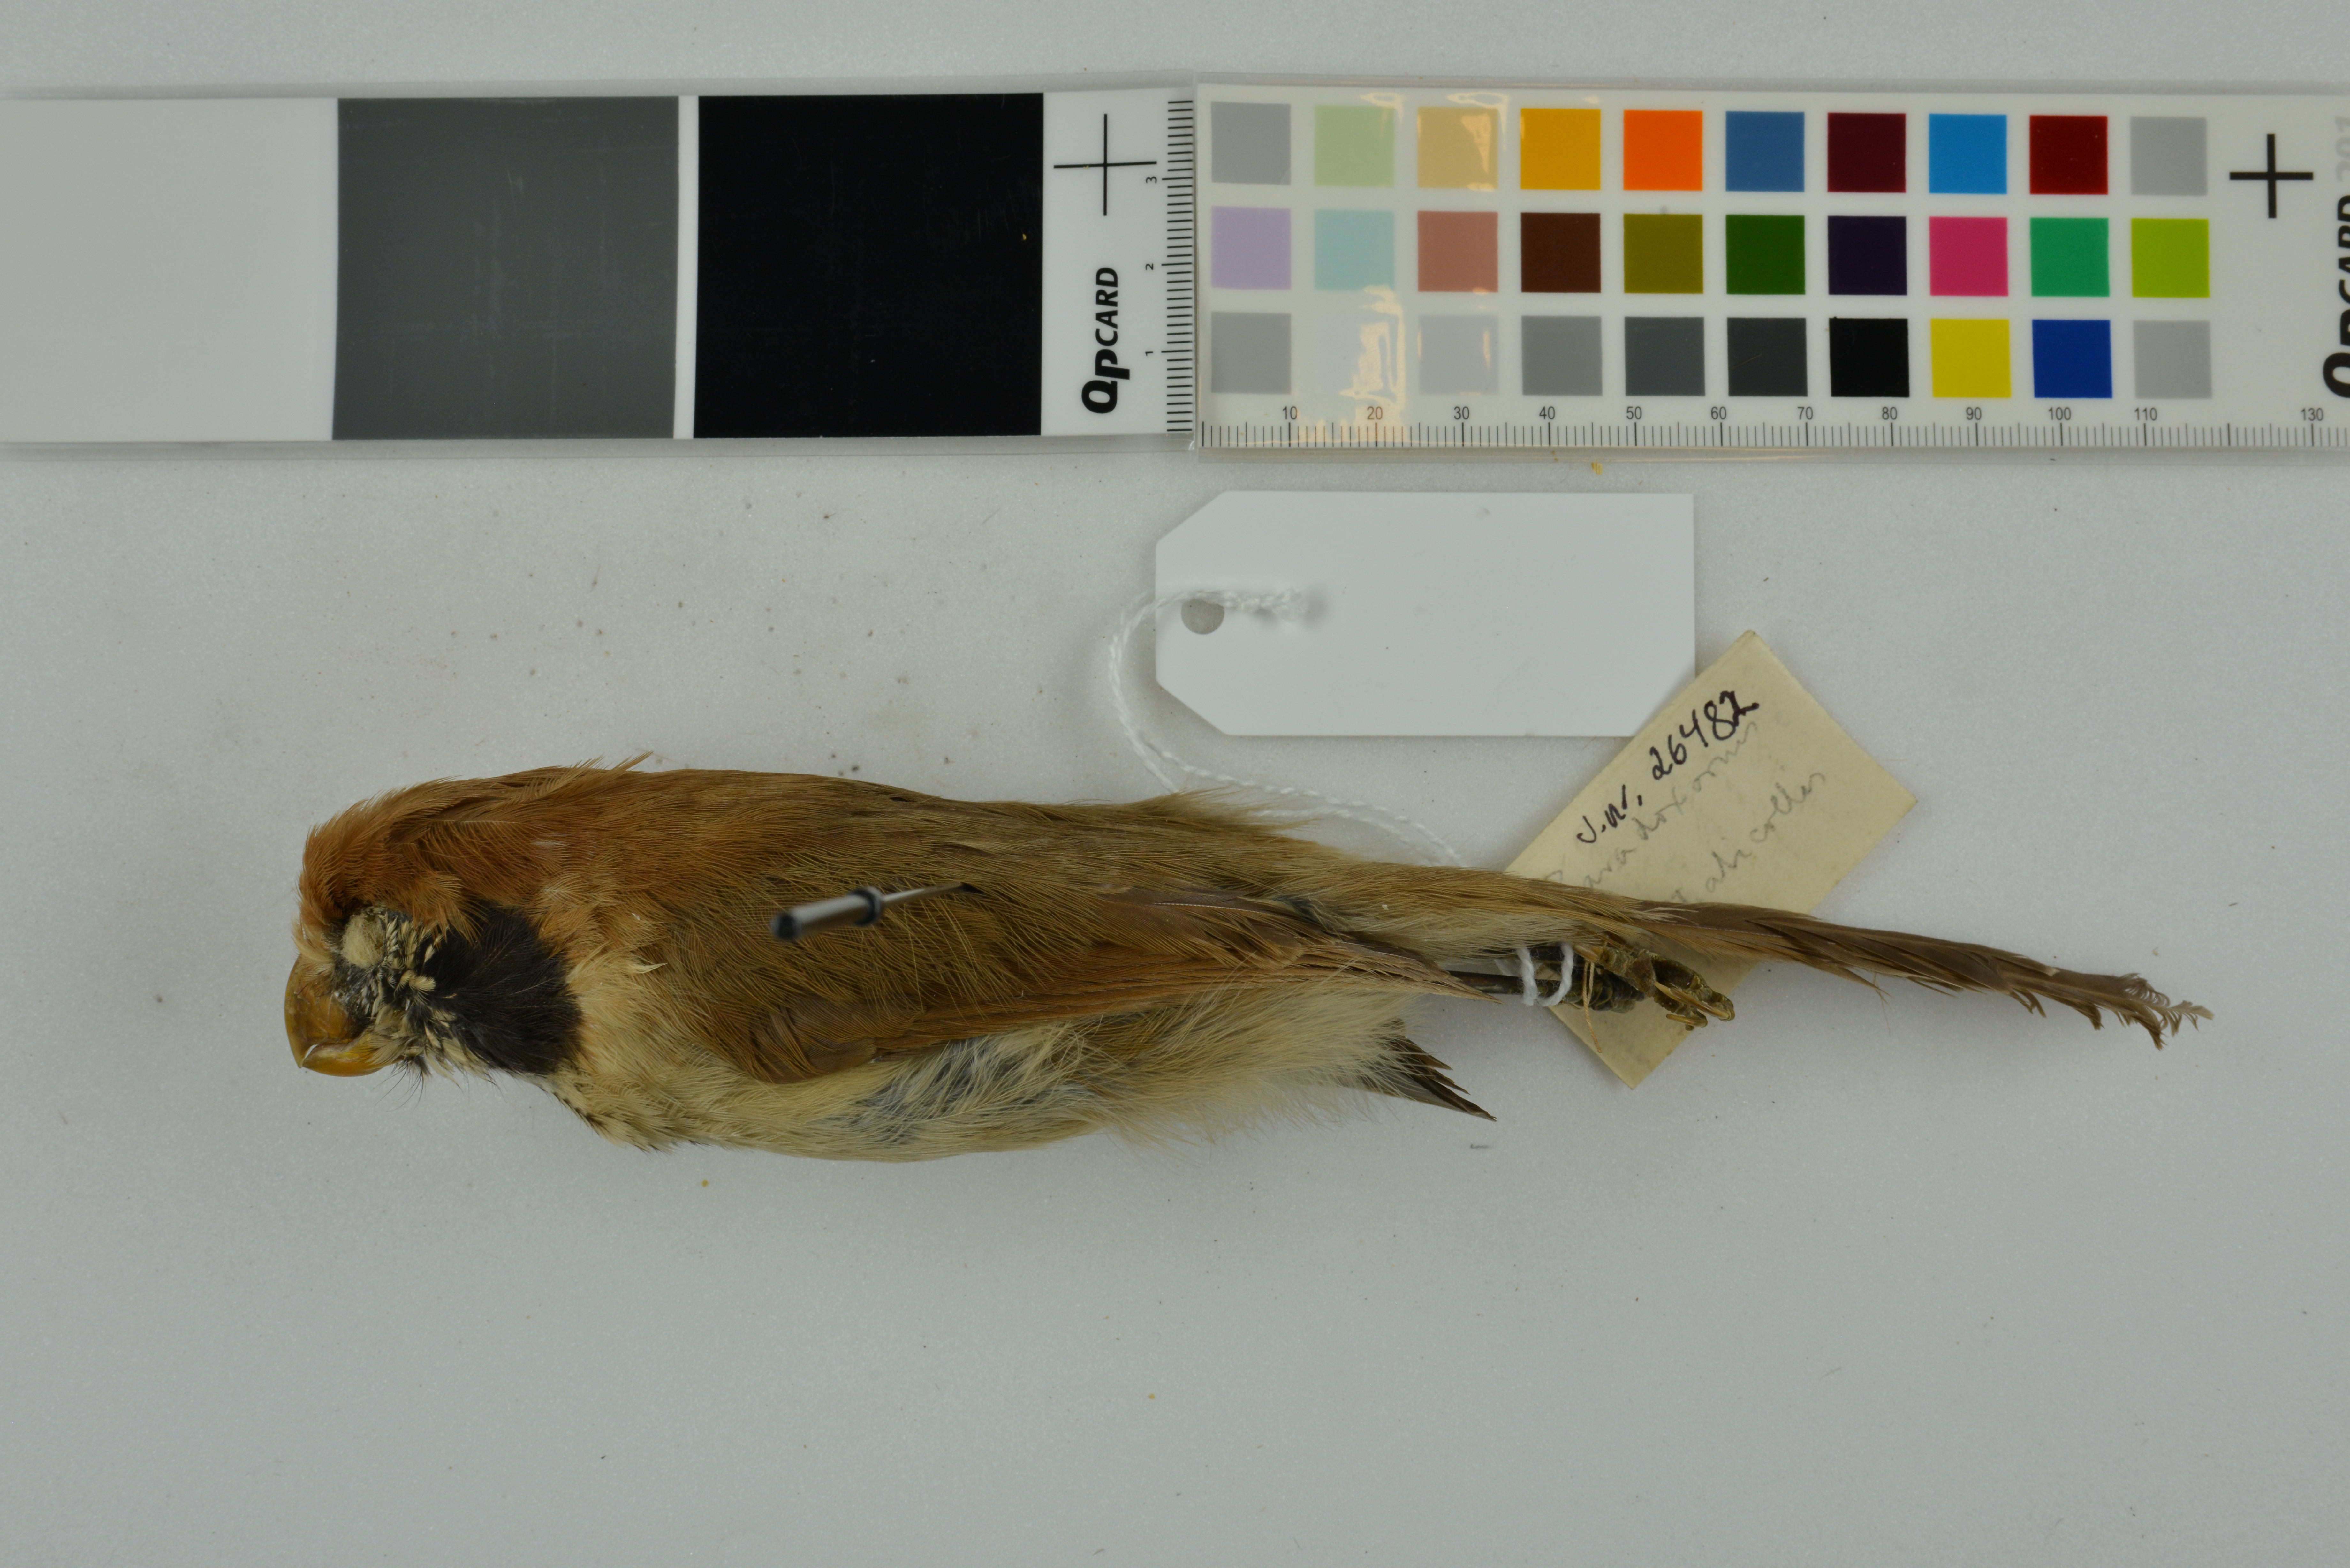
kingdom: Animalia
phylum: Chordata
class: Aves
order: Passeriformes
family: Sylviidae
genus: Paradoxornis
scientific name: Paradoxornis guttaticollis
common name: Spot-breasted parrotbill
